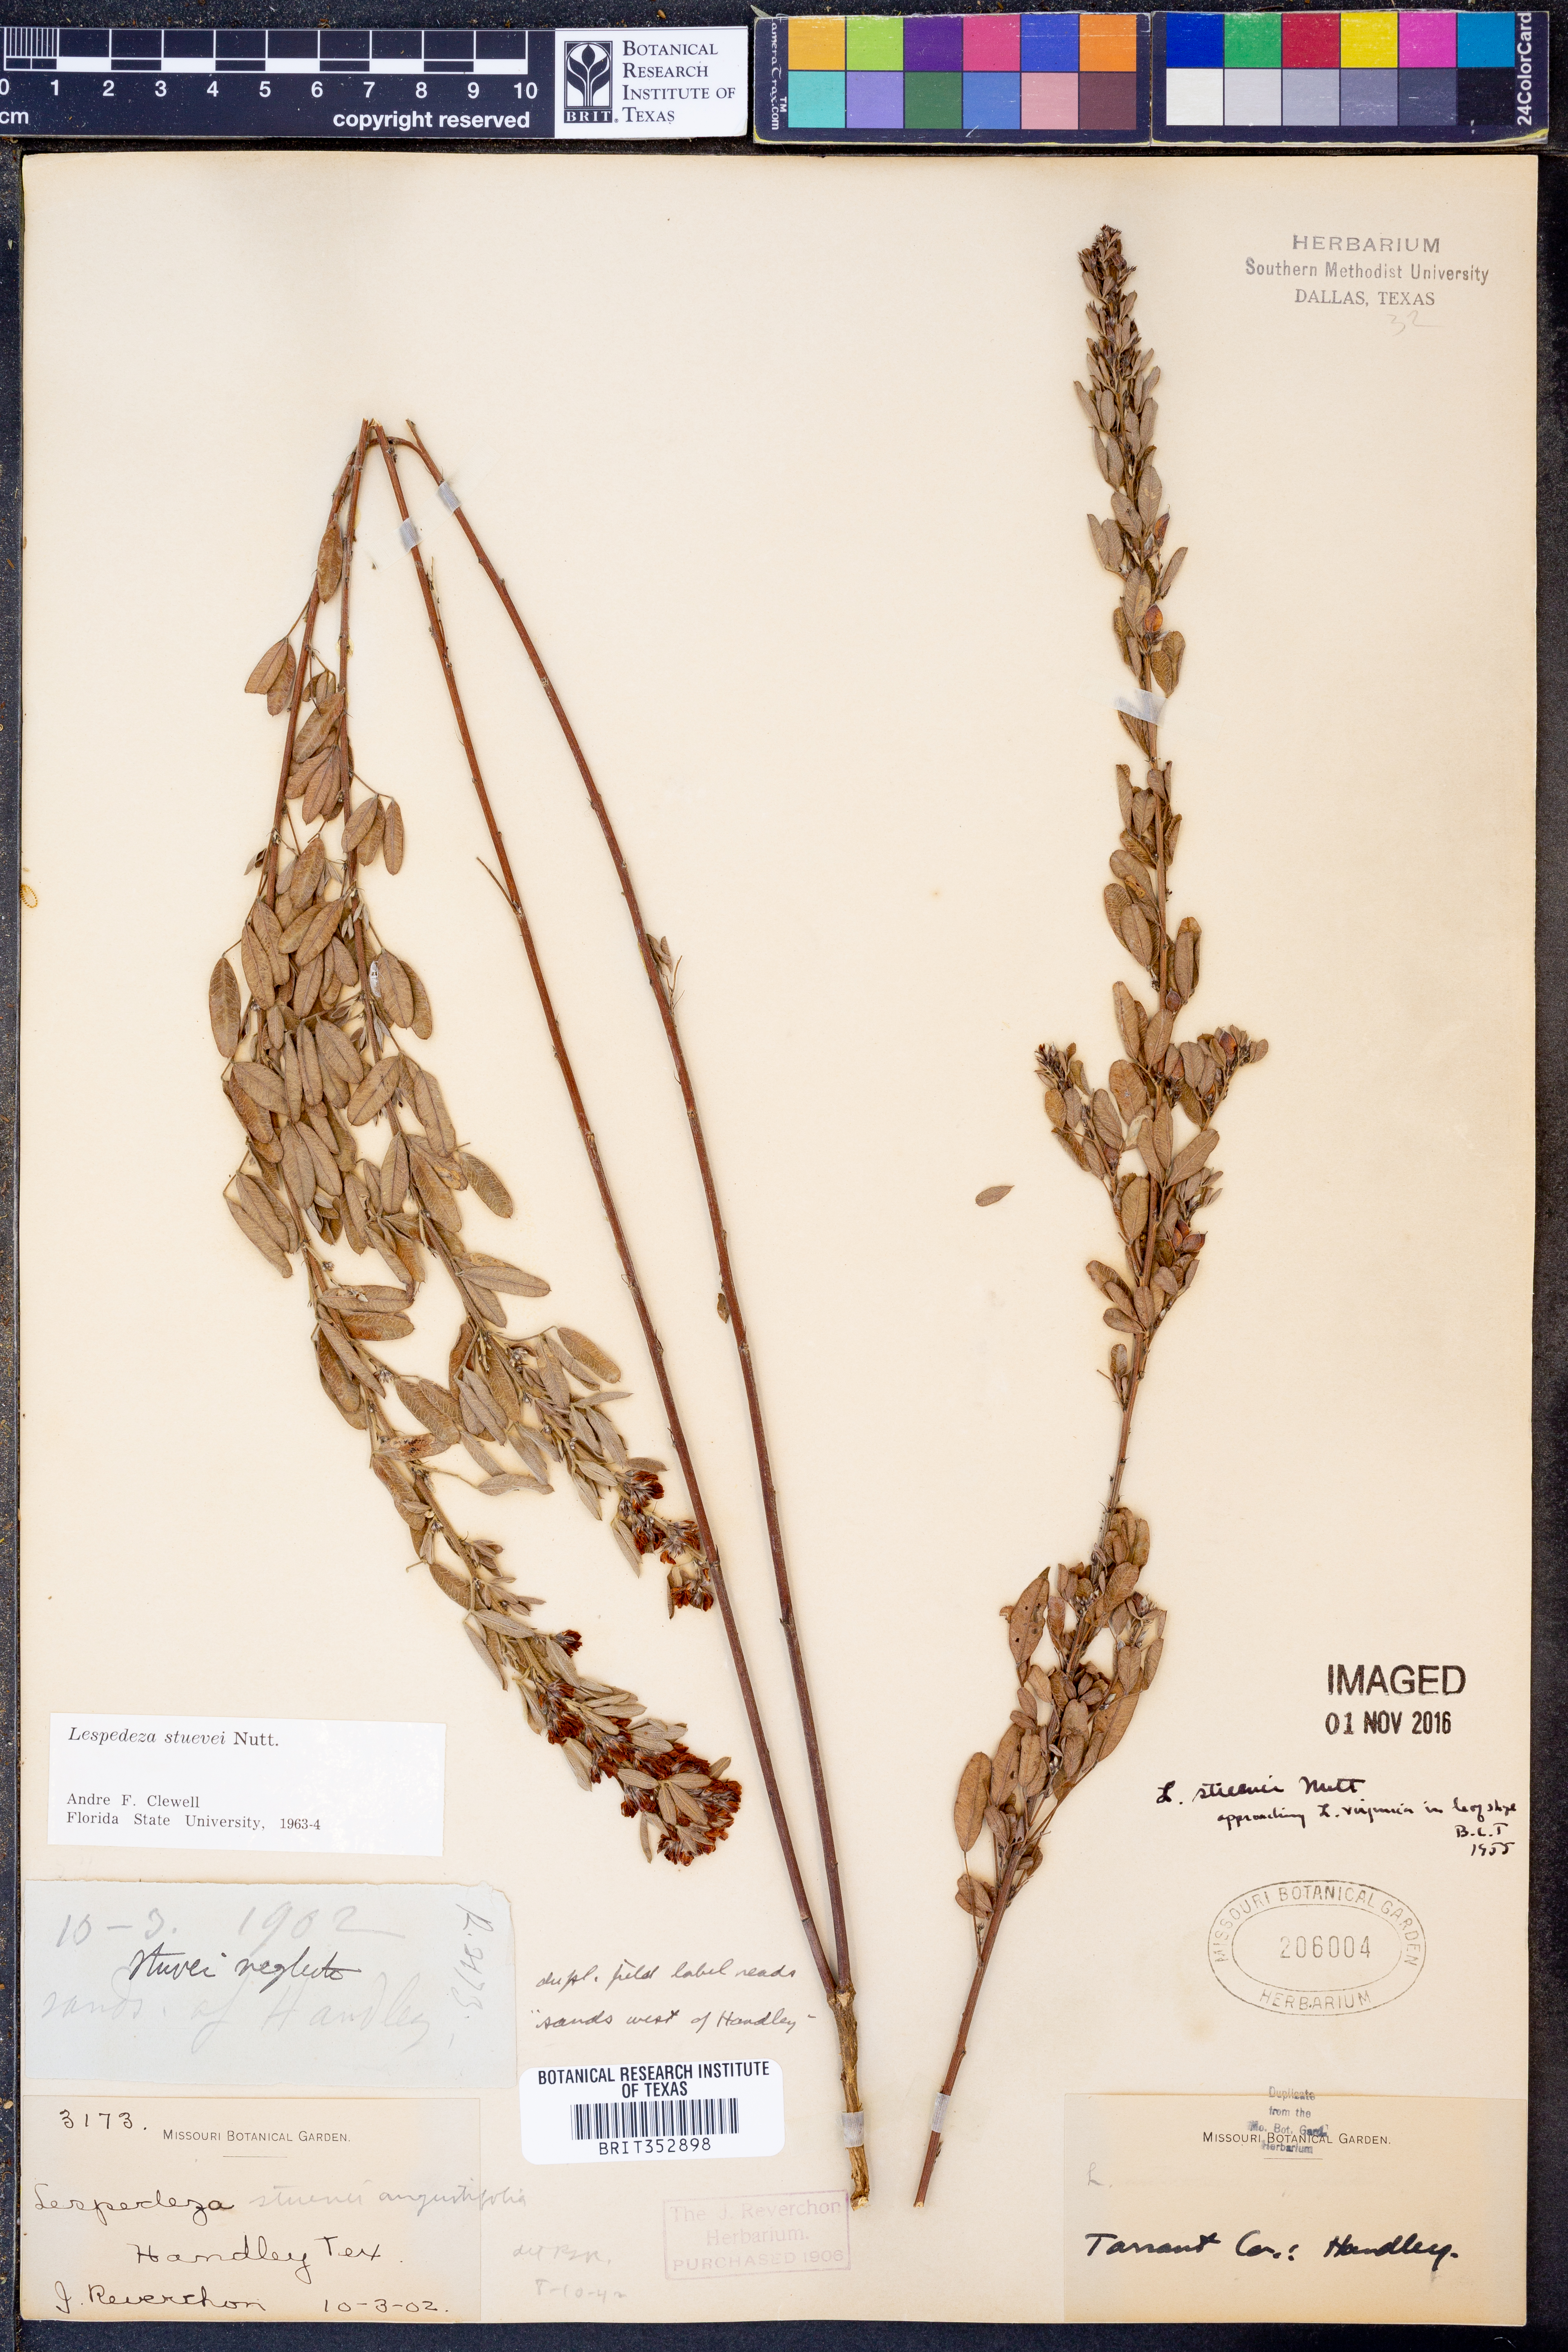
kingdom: Plantae
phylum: Tracheophyta
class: Magnoliopsida
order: Fabales
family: Fabaceae
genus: Lespedeza
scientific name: Lespedeza stuevei
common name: Tall bush-clover
